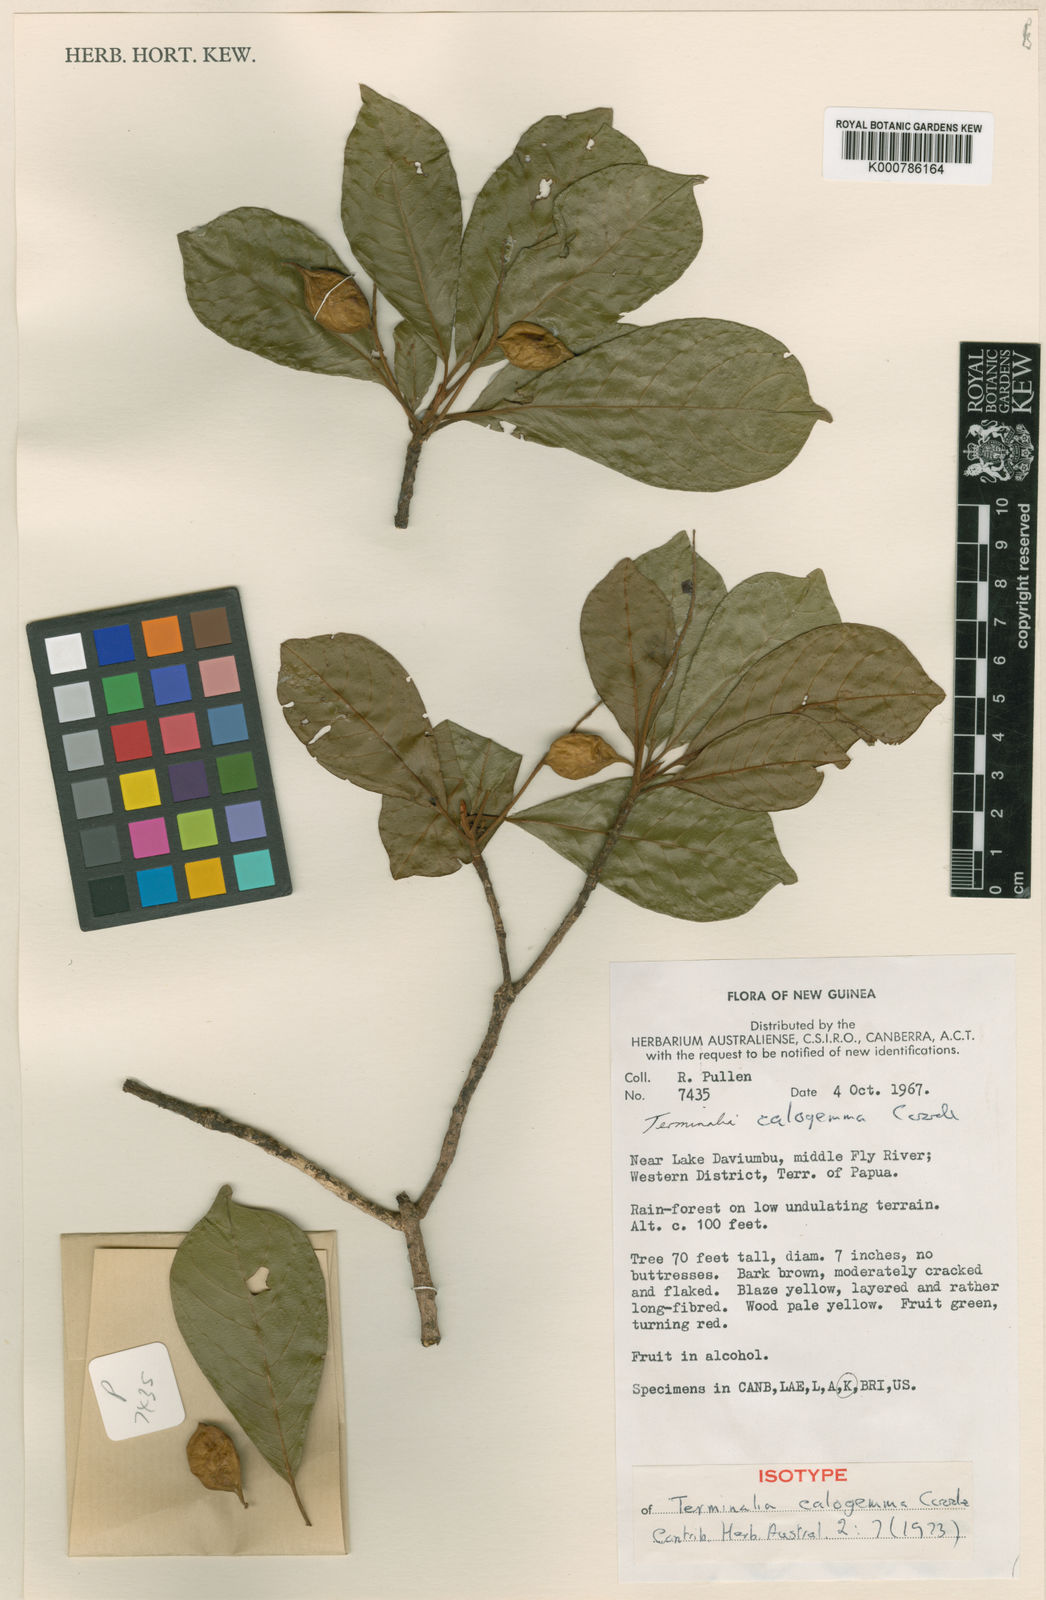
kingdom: Plantae
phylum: Tracheophyta
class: Magnoliopsida
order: Myrtales
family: Combretaceae
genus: Terminalia
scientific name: Terminalia calogemma
